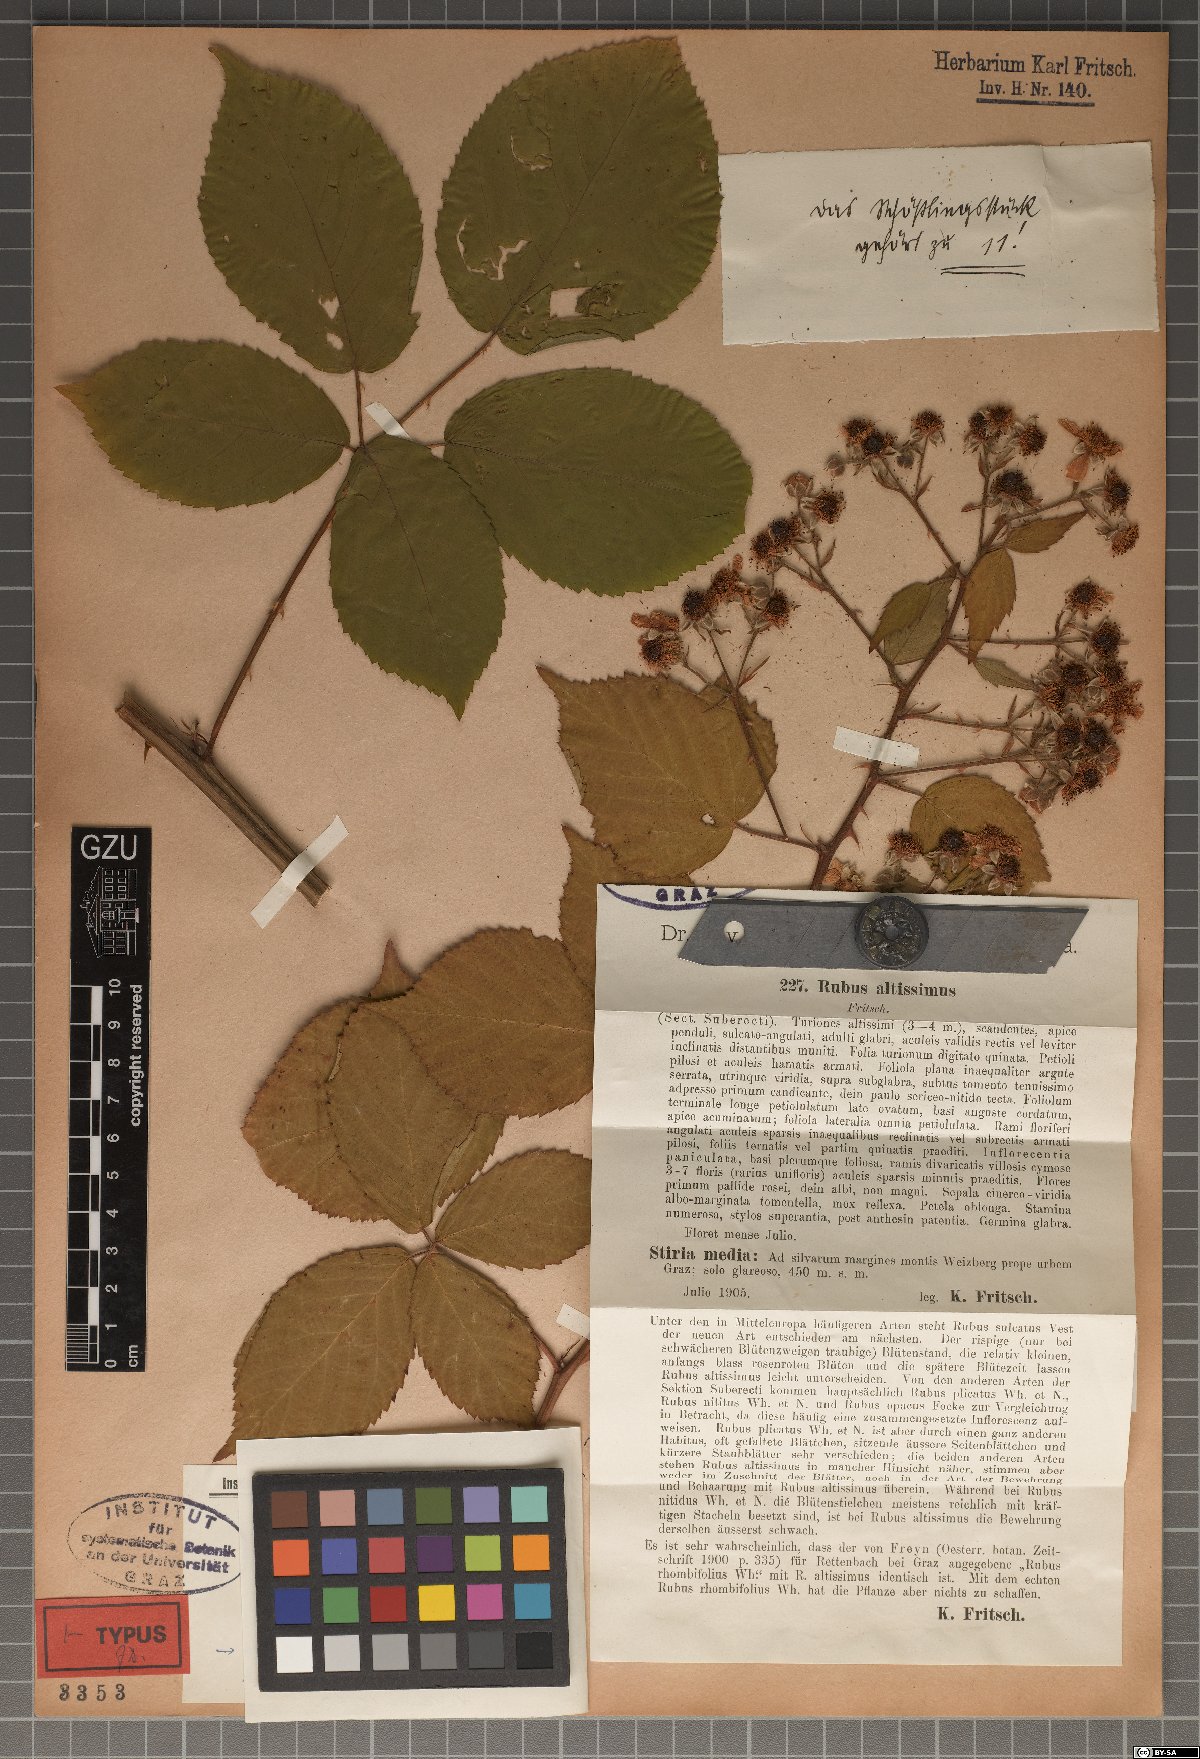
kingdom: Plantae
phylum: Tracheophyta
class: Magnoliopsida
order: Rosales
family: Rosaceae
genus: Rubus
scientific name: Rubus sulcatus
